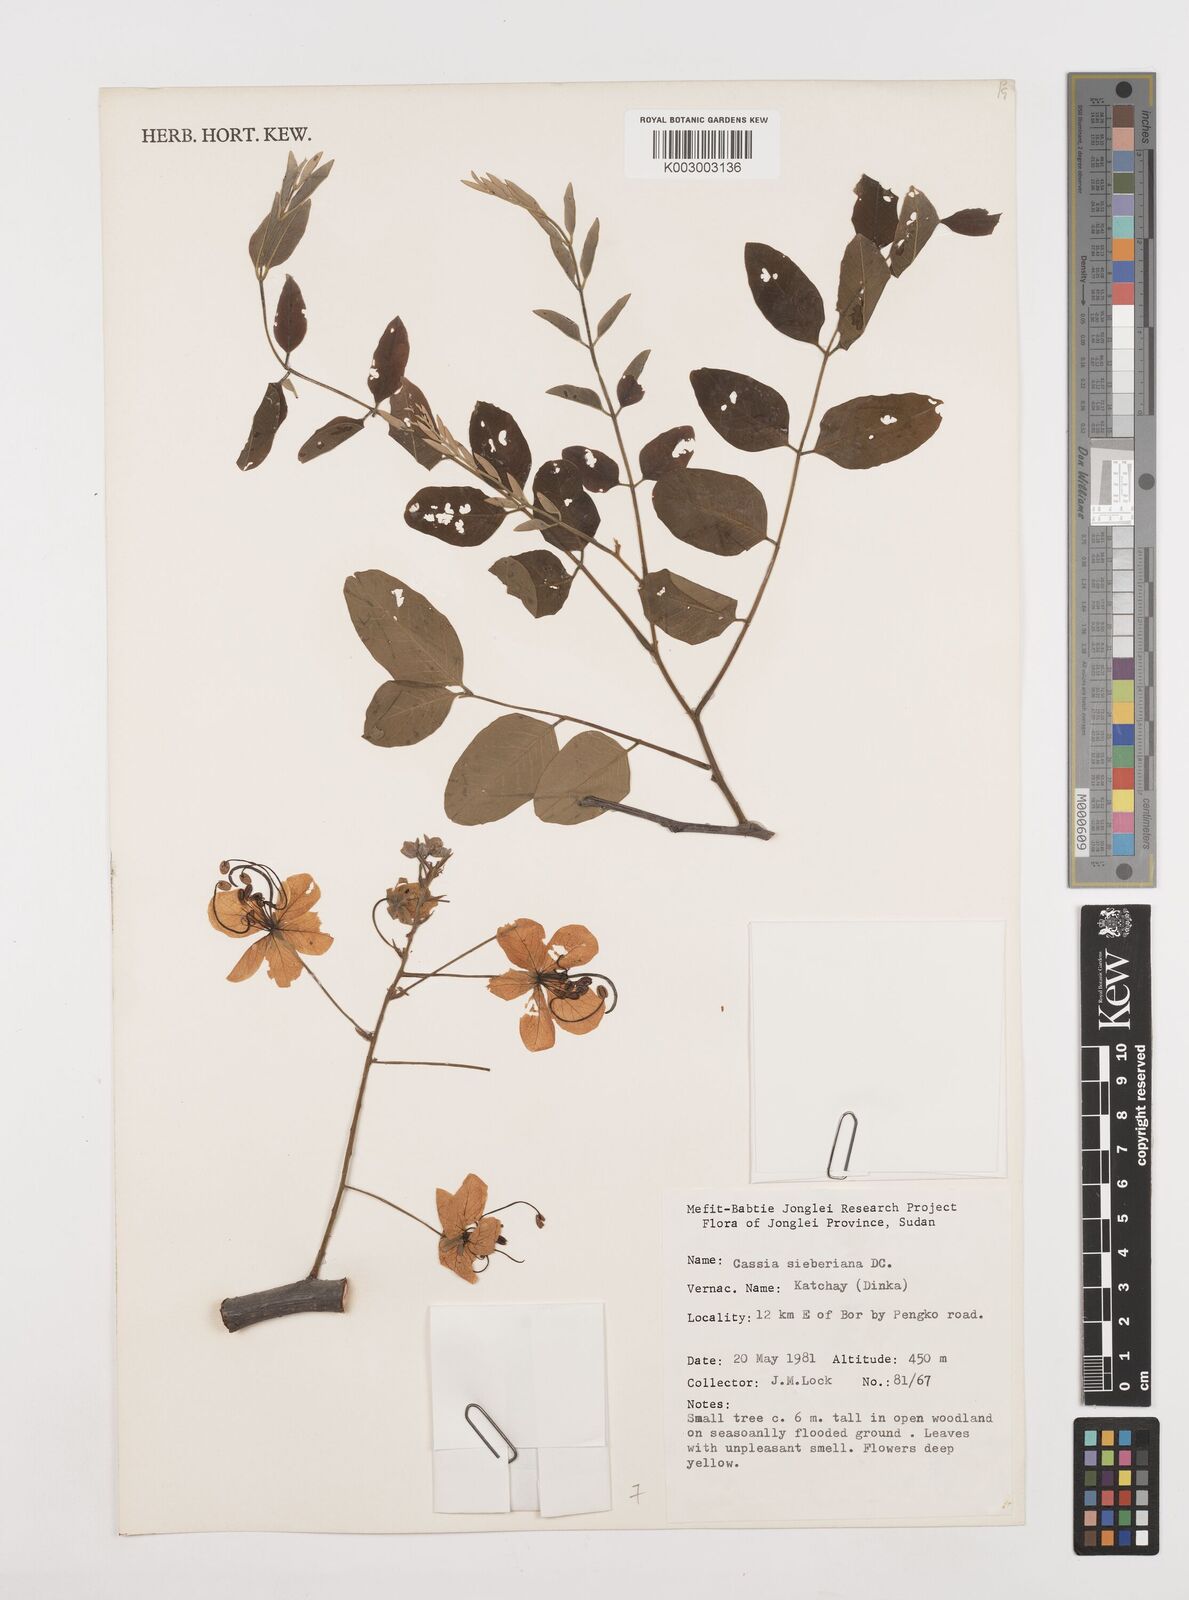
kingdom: Plantae
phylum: Tracheophyta
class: Magnoliopsida
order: Fabales
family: Fabaceae
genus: Cassia
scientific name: Cassia sieberiana
